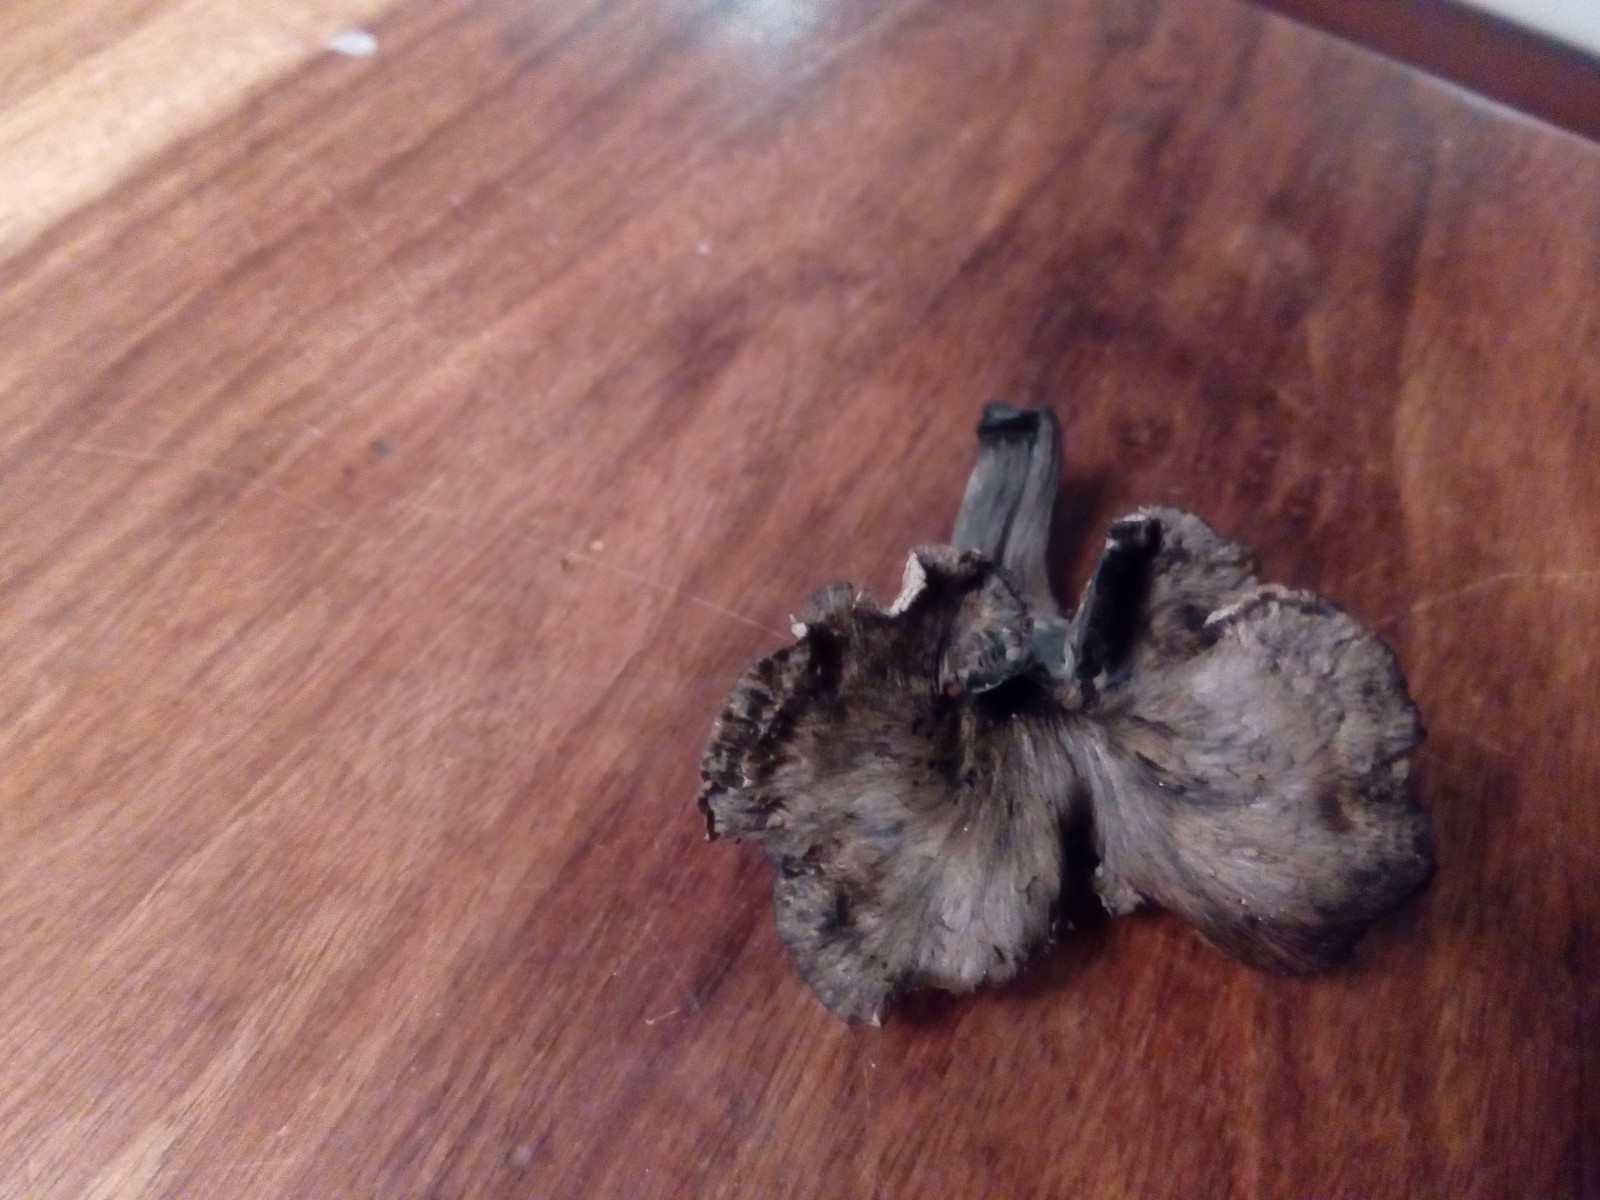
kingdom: Fungi
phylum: Basidiomycota
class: Agaricomycetes
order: Cantharellales
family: Hydnaceae
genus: Cantharellus
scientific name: Cantharellus cinereus
